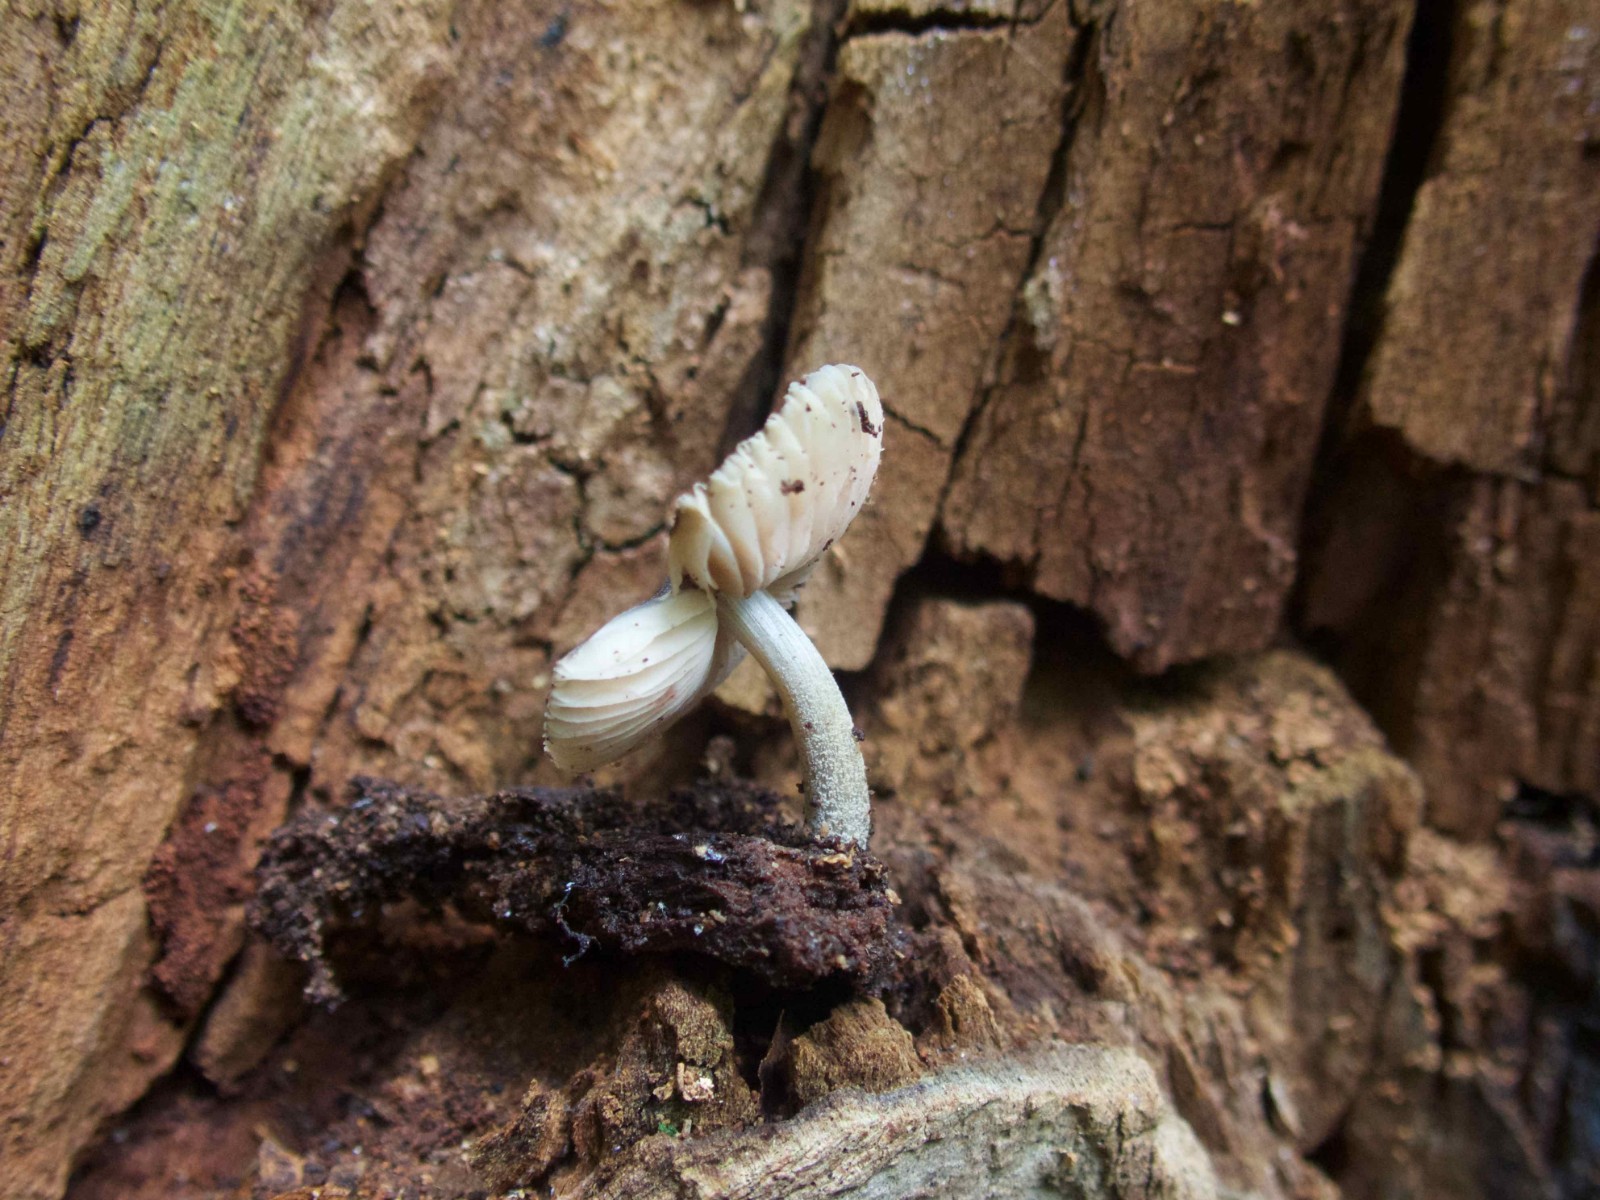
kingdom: Fungi
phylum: Basidiomycota
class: Agaricomycetes
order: Agaricales
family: Pluteaceae
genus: Pluteus
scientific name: Pluteus
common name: gråstokket skærmhat
